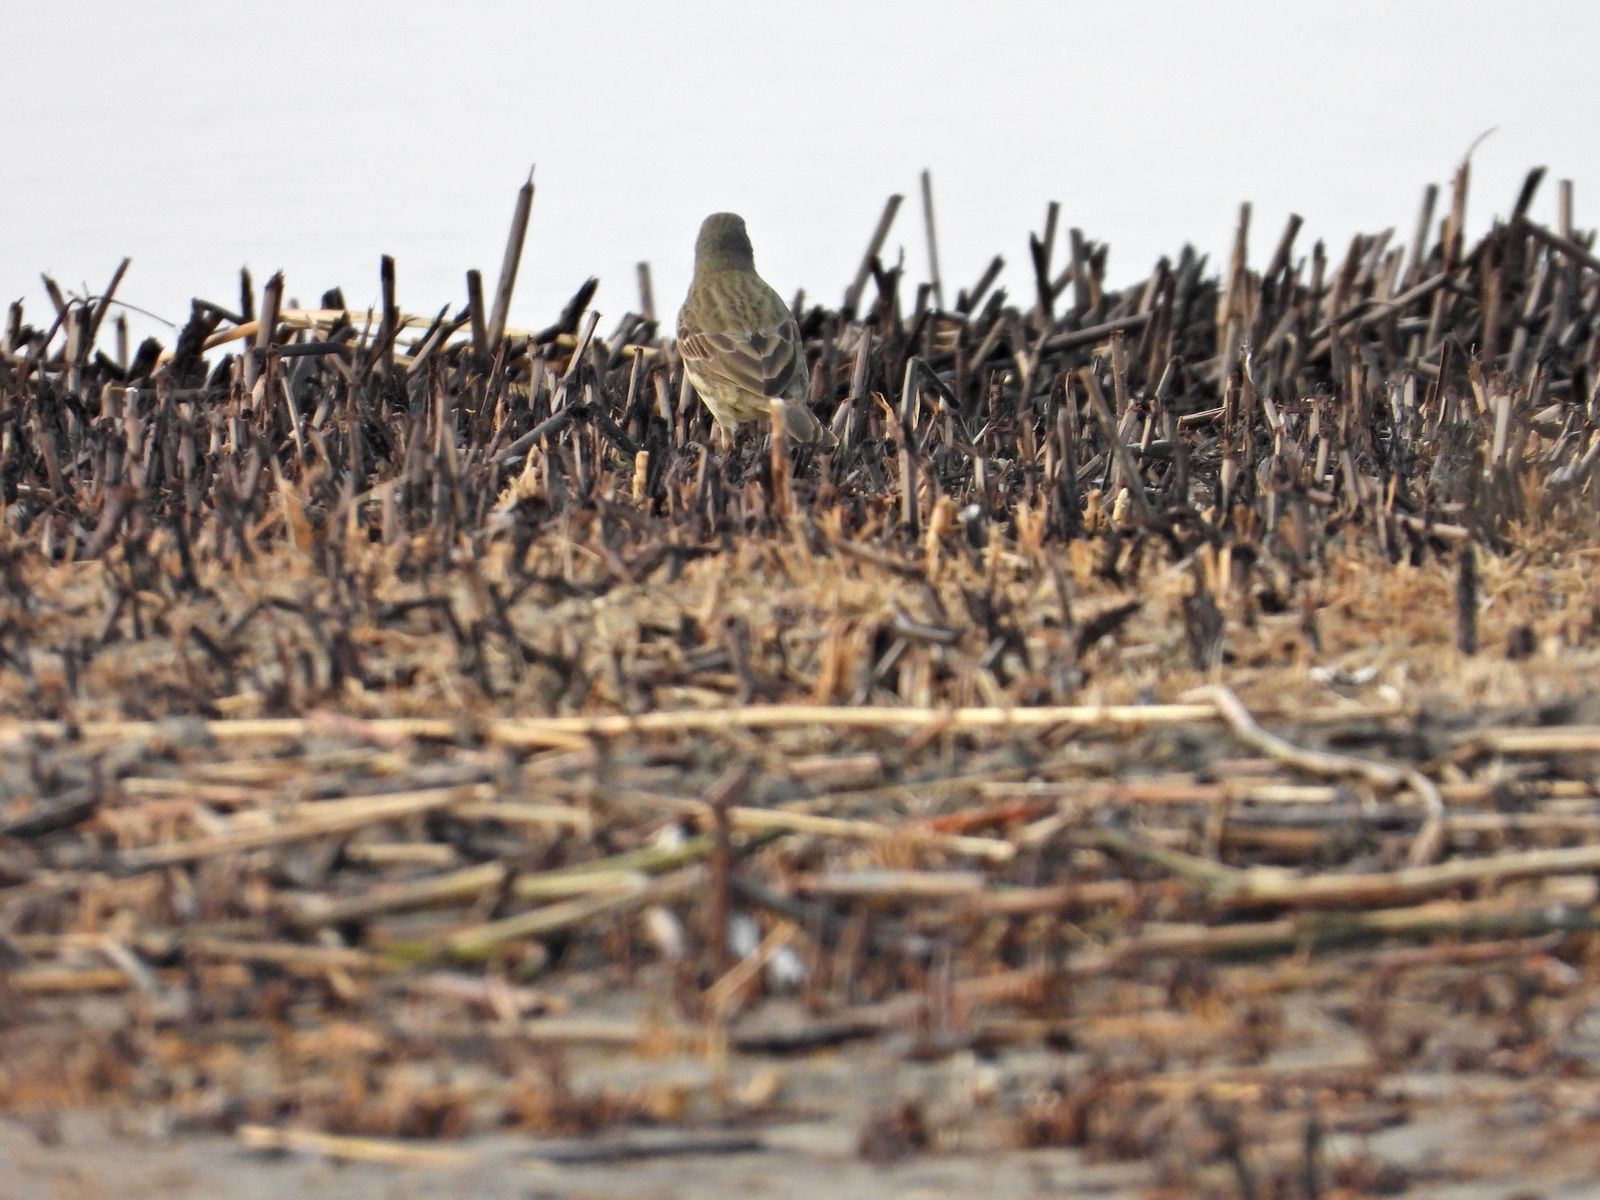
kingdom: Animalia
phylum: Chordata
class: Aves
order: Passeriformes
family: Motacillidae
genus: Anthus
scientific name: Anthus petrosus
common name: Eurasian rock pipit
